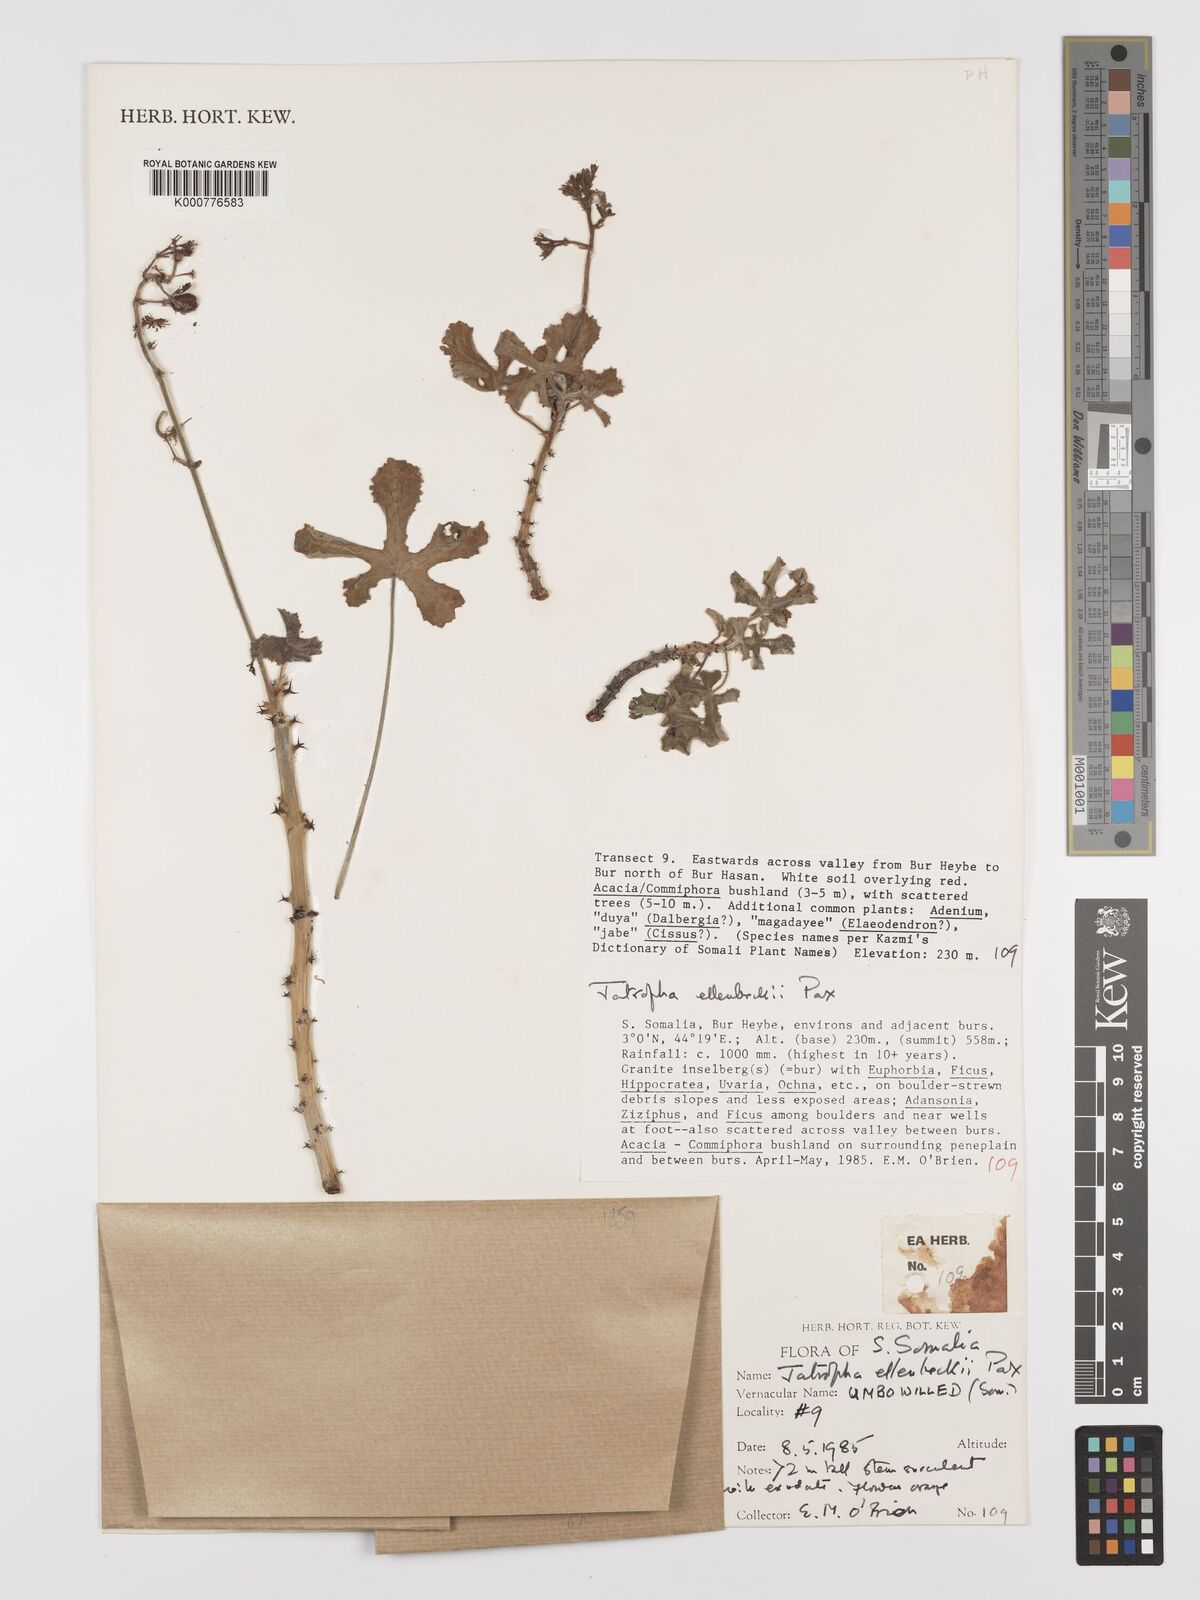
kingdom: Plantae
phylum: Tracheophyta
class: Magnoliopsida
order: Malpighiales
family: Euphorbiaceae
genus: Jatropha
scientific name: Jatropha ellenbeckii
